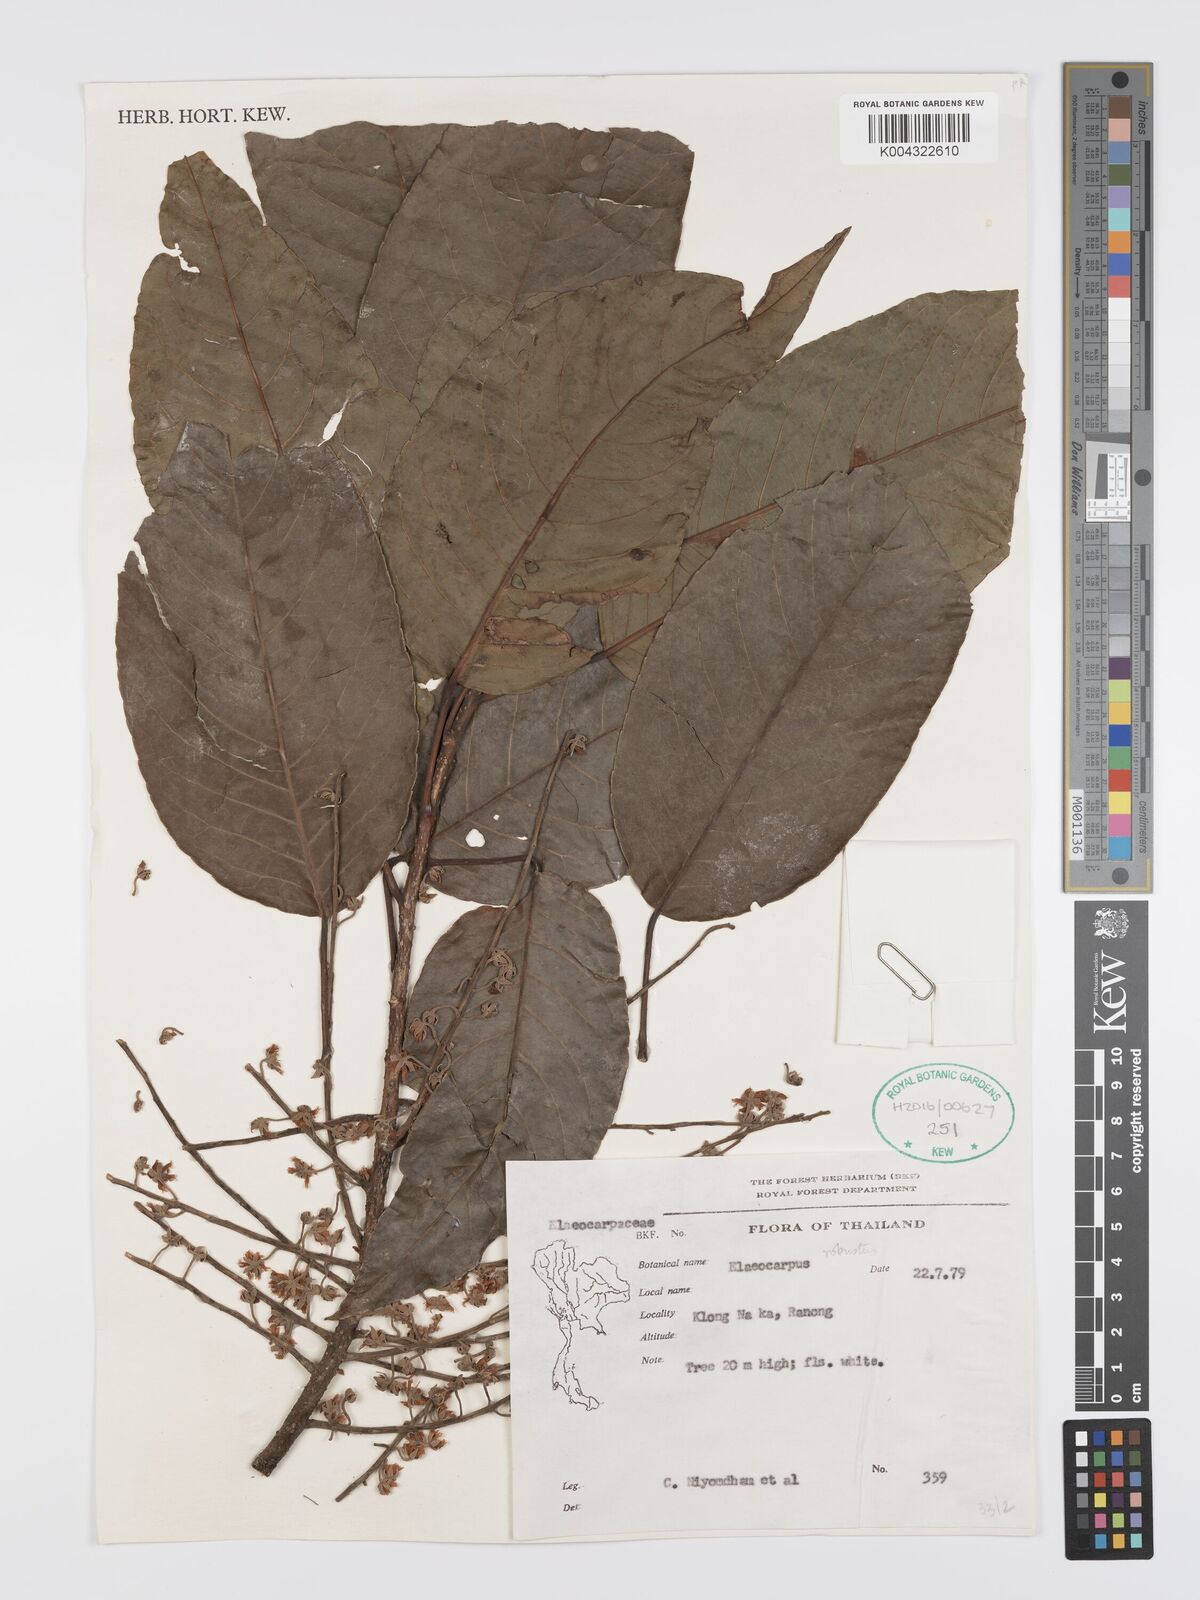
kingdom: Plantae
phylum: Tracheophyta
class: Magnoliopsida
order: Oxalidales
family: Elaeocarpaceae
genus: Elaeocarpus
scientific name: Elaeocarpus robustus
